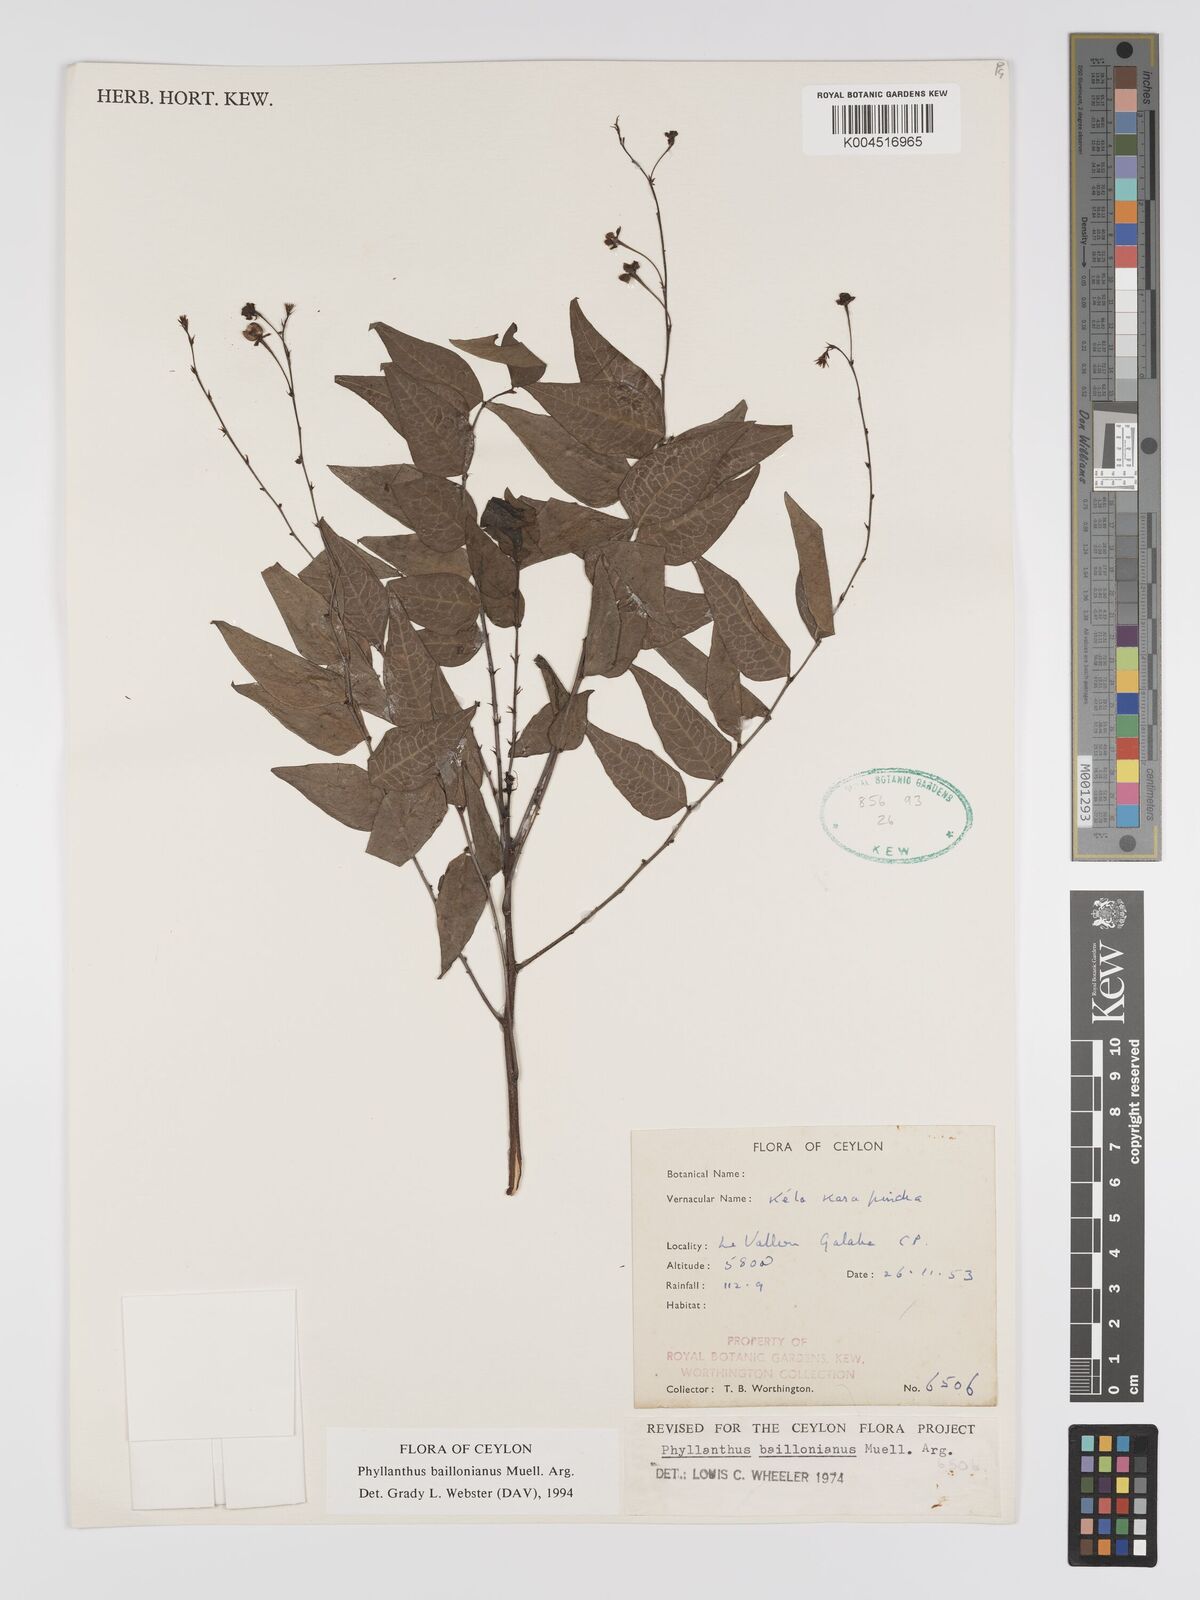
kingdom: Plantae
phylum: Tracheophyta
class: Magnoliopsida
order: Malpighiales
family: Phyllanthaceae
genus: Phyllanthus
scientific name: Phyllanthus baillonianus
